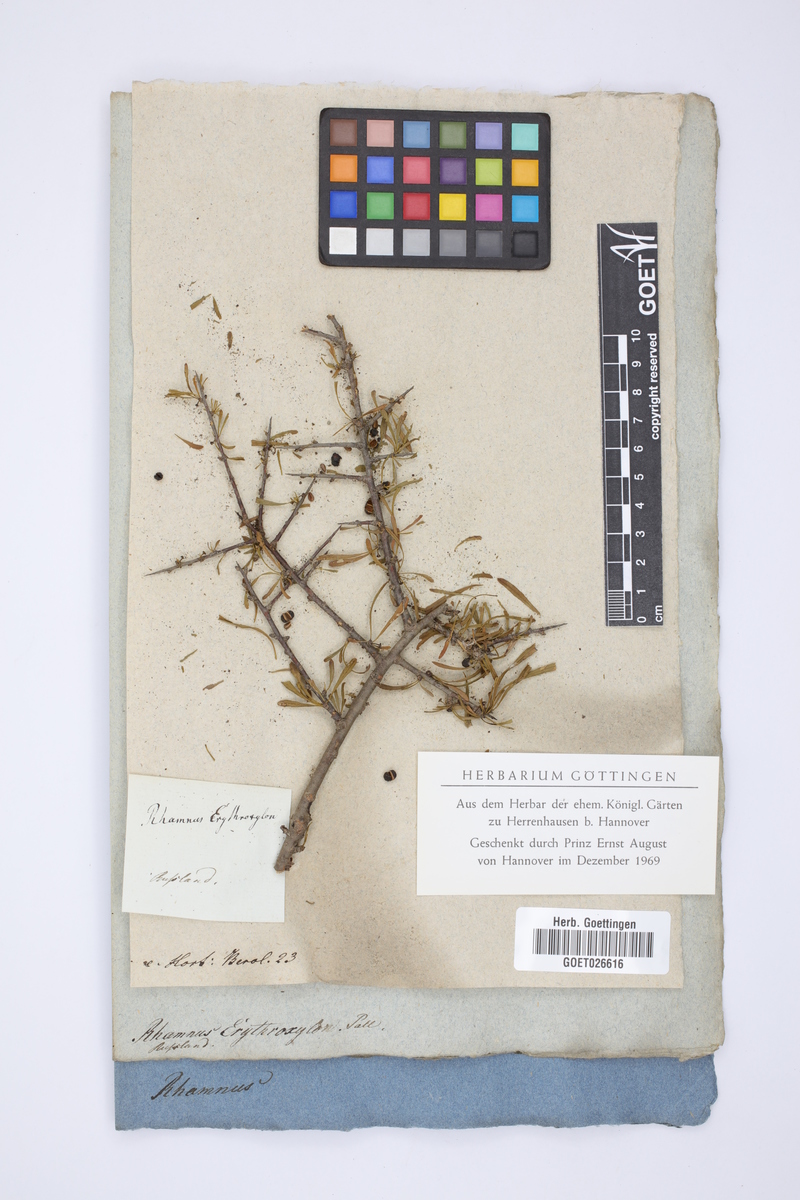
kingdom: Plantae
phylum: Tracheophyta
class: Magnoliopsida
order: Rosales
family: Rhamnaceae
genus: Rhamnus
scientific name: Rhamnus erythroxylum
